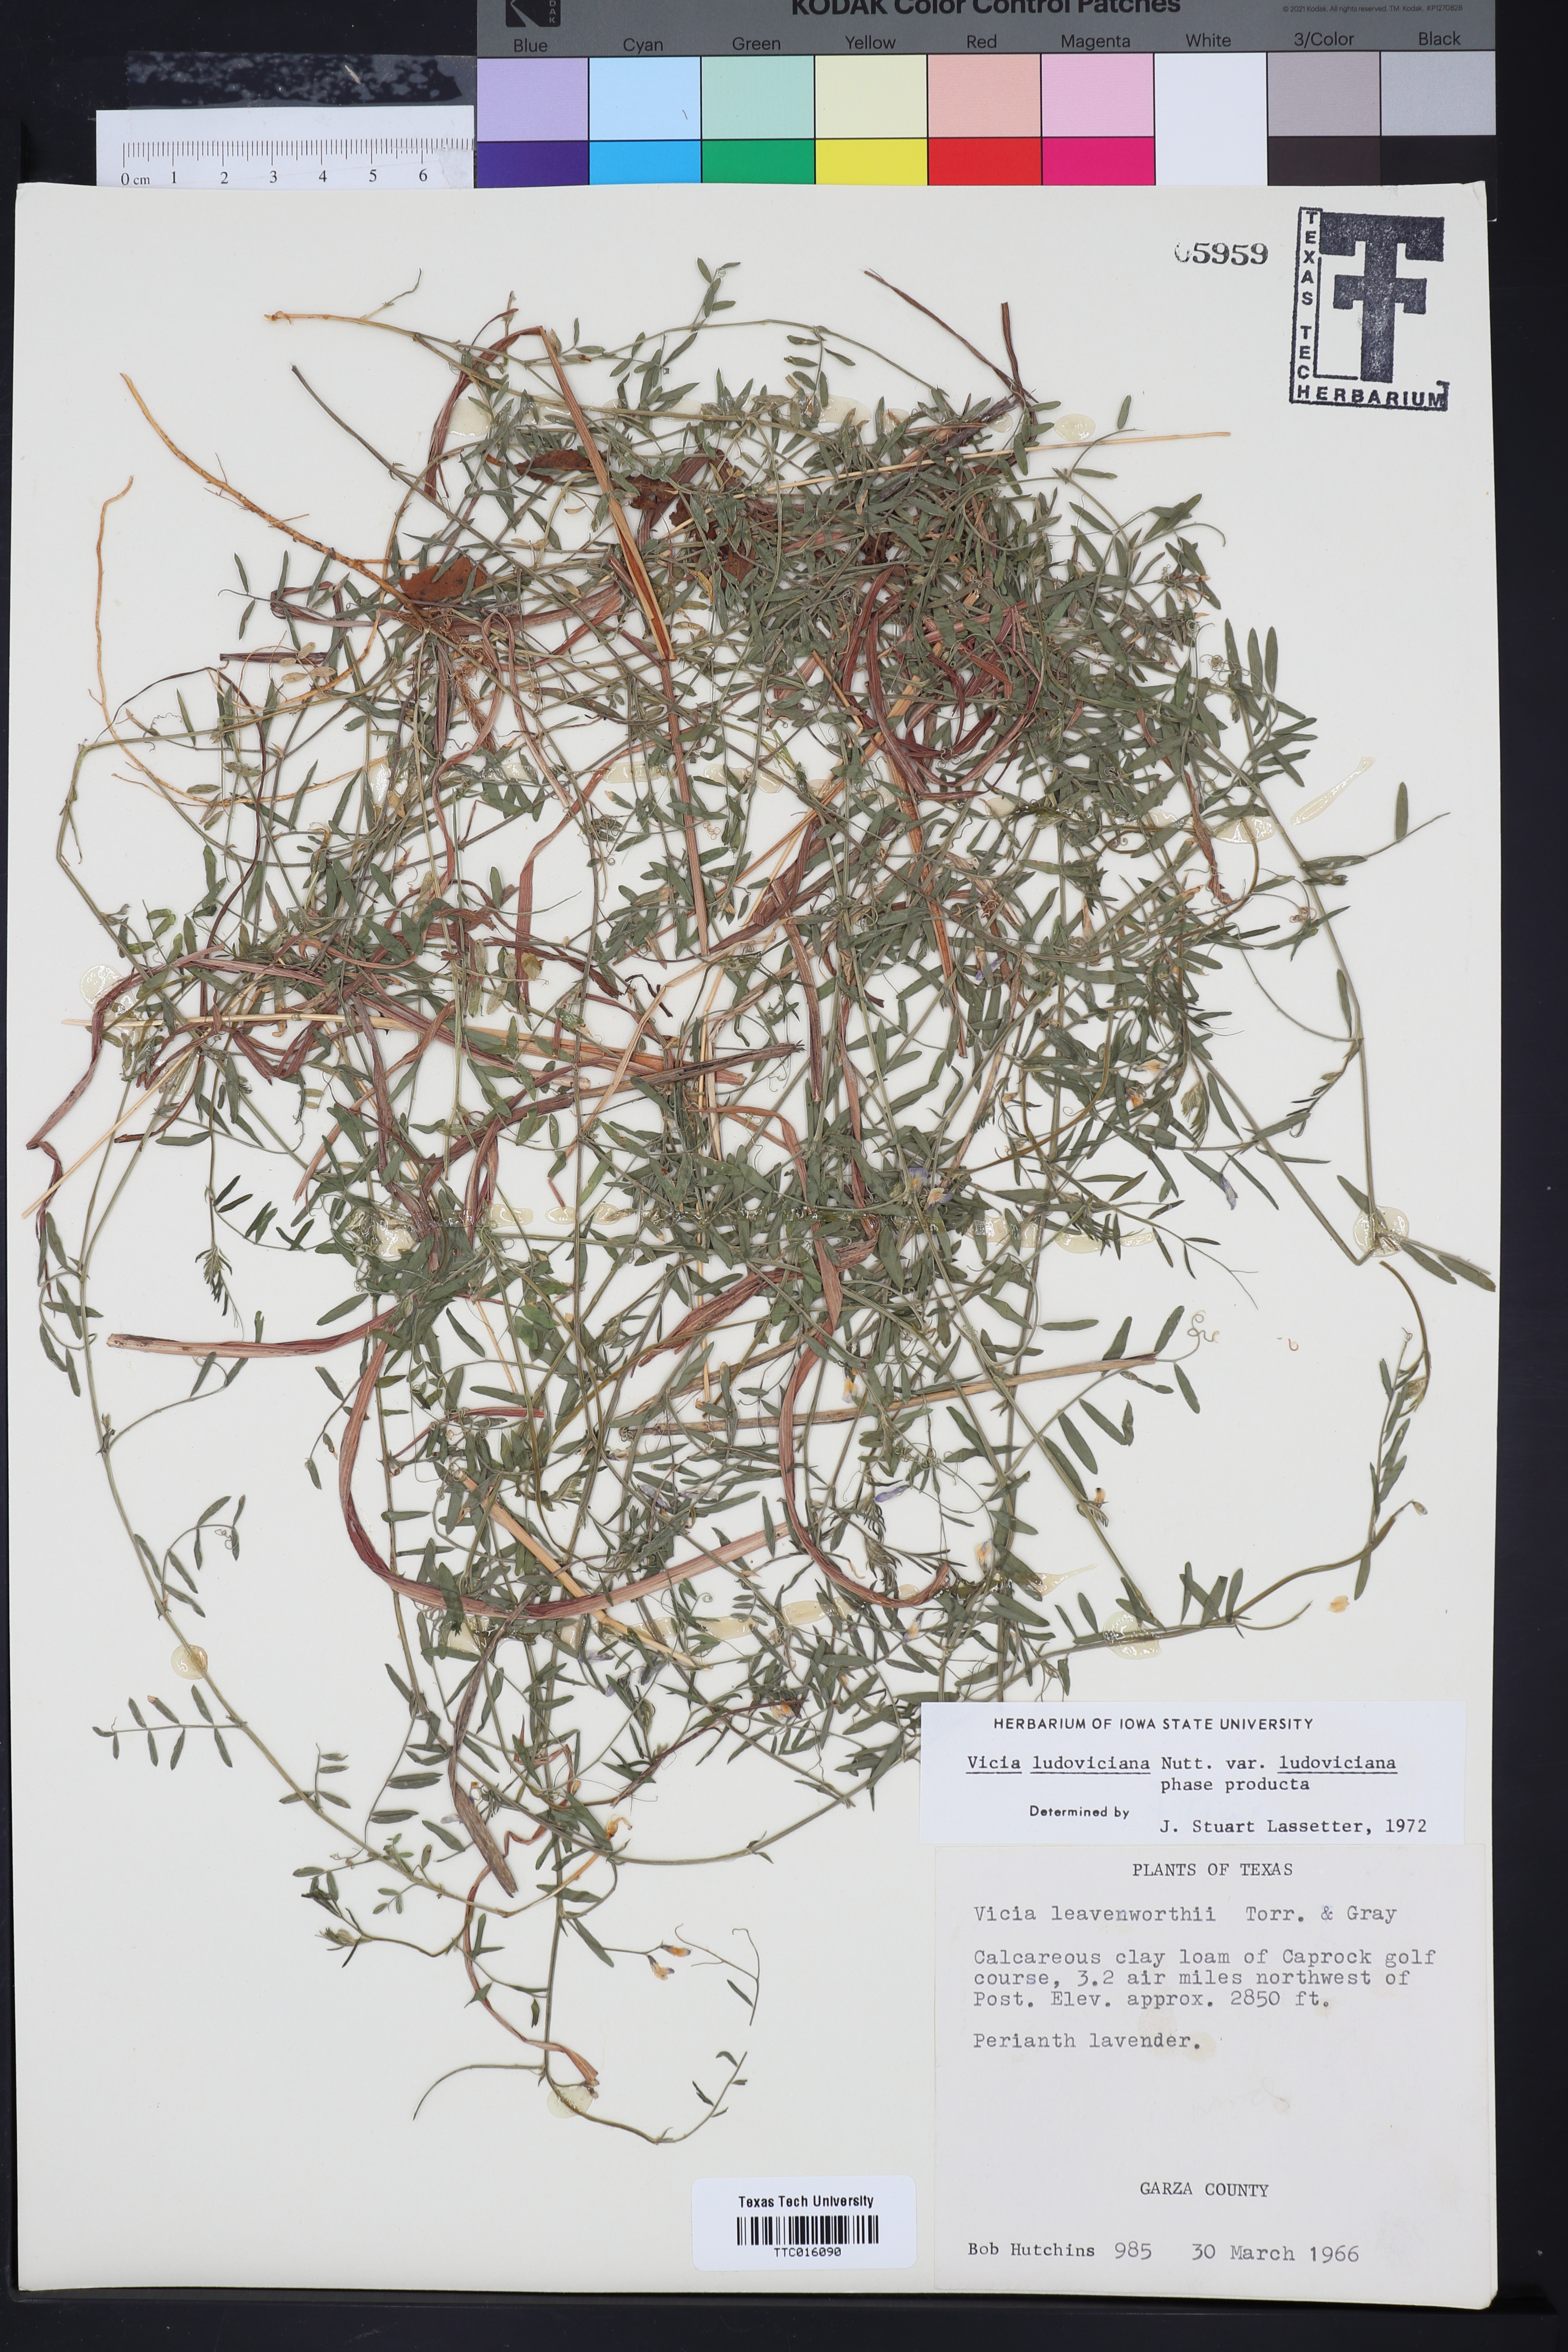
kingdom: Plantae
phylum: Tracheophyta
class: Magnoliopsida
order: Fabales
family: Fabaceae
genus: Vicia
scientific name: Vicia ludoviciana
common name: Louisiana vetch
